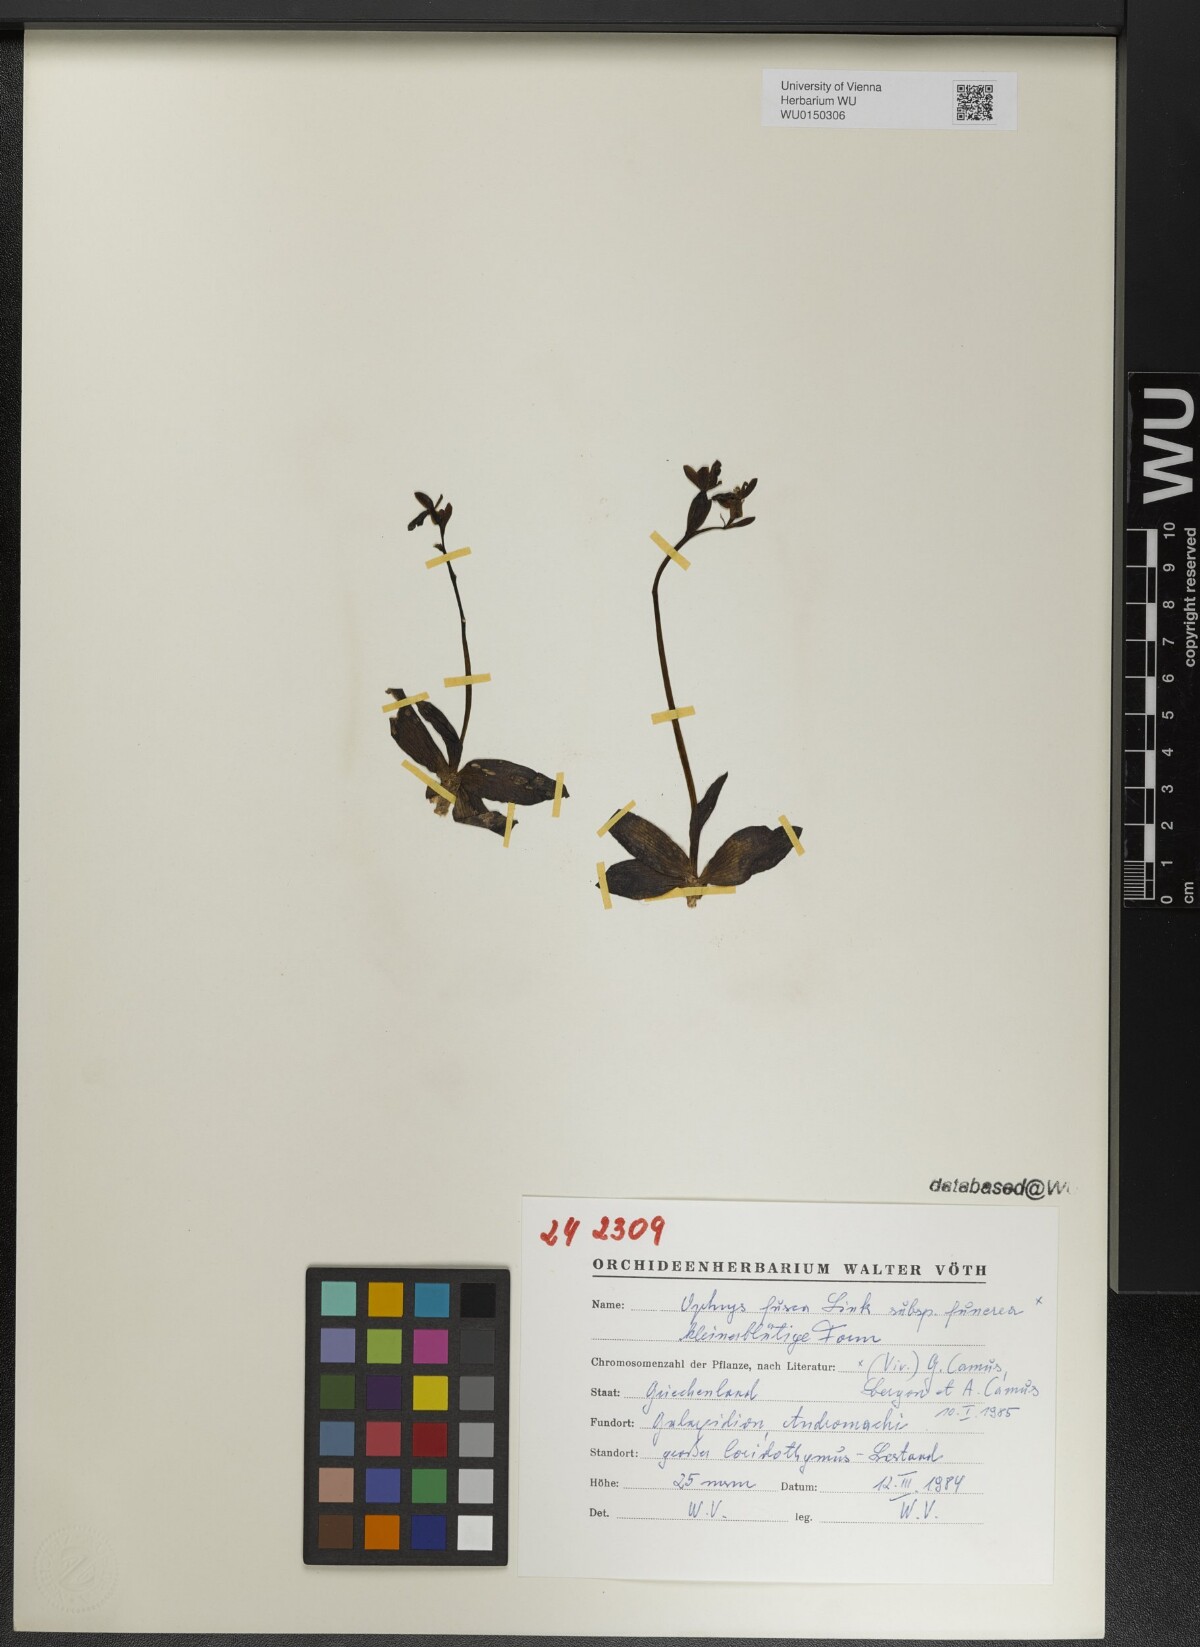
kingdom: Plantae
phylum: Tracheophyta
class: Liliopsida
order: Asparagales
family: Orchidaceae
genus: Ophrys
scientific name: Ophrys fusca
